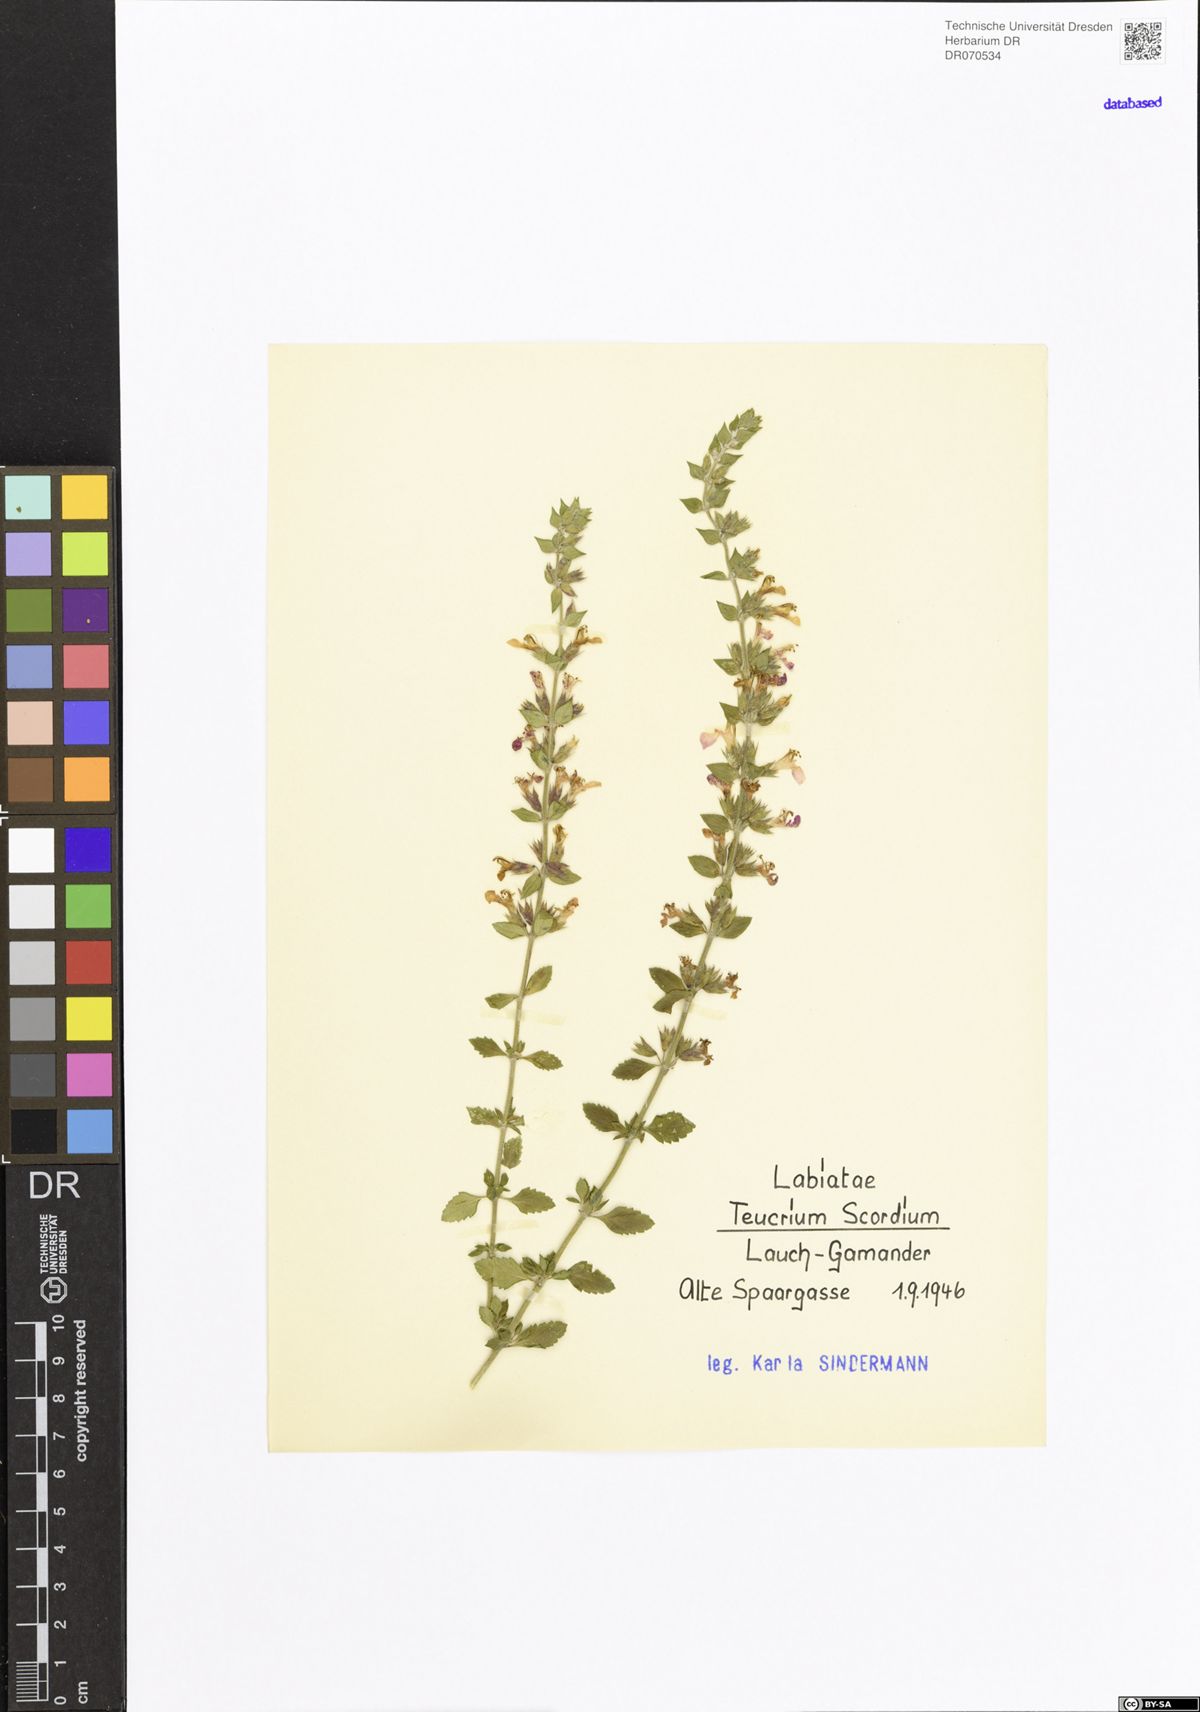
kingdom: Plantae
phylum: Tracheophyta
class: Magnoliopsida
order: Lamiales
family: Lamiaceae
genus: Teucrium
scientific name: Teucrium scordium
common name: Water germander
